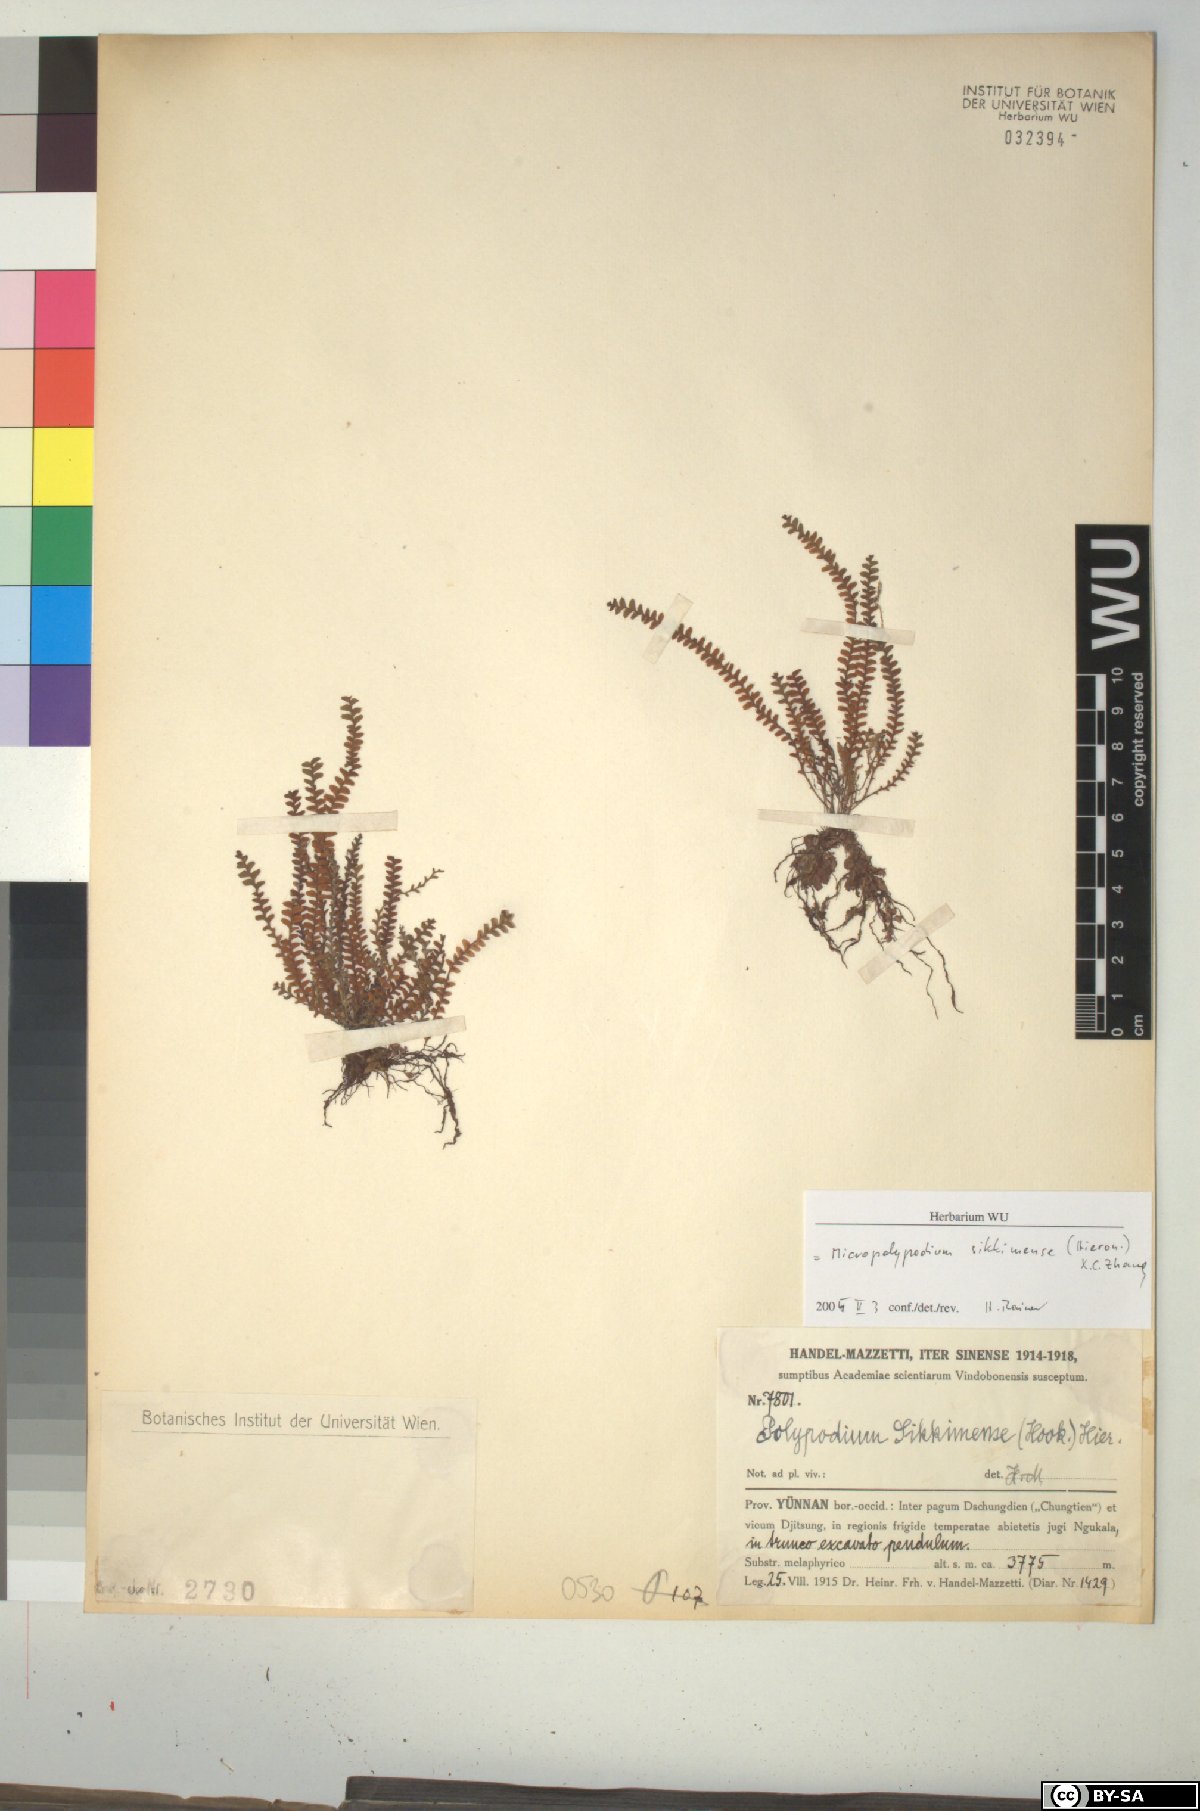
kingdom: Plantae
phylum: Tracheophyta
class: Polypodiopsida
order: Polypodiales
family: Polypodiaceae
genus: Micropolypodium
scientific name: Micropolypodium sikkimense
